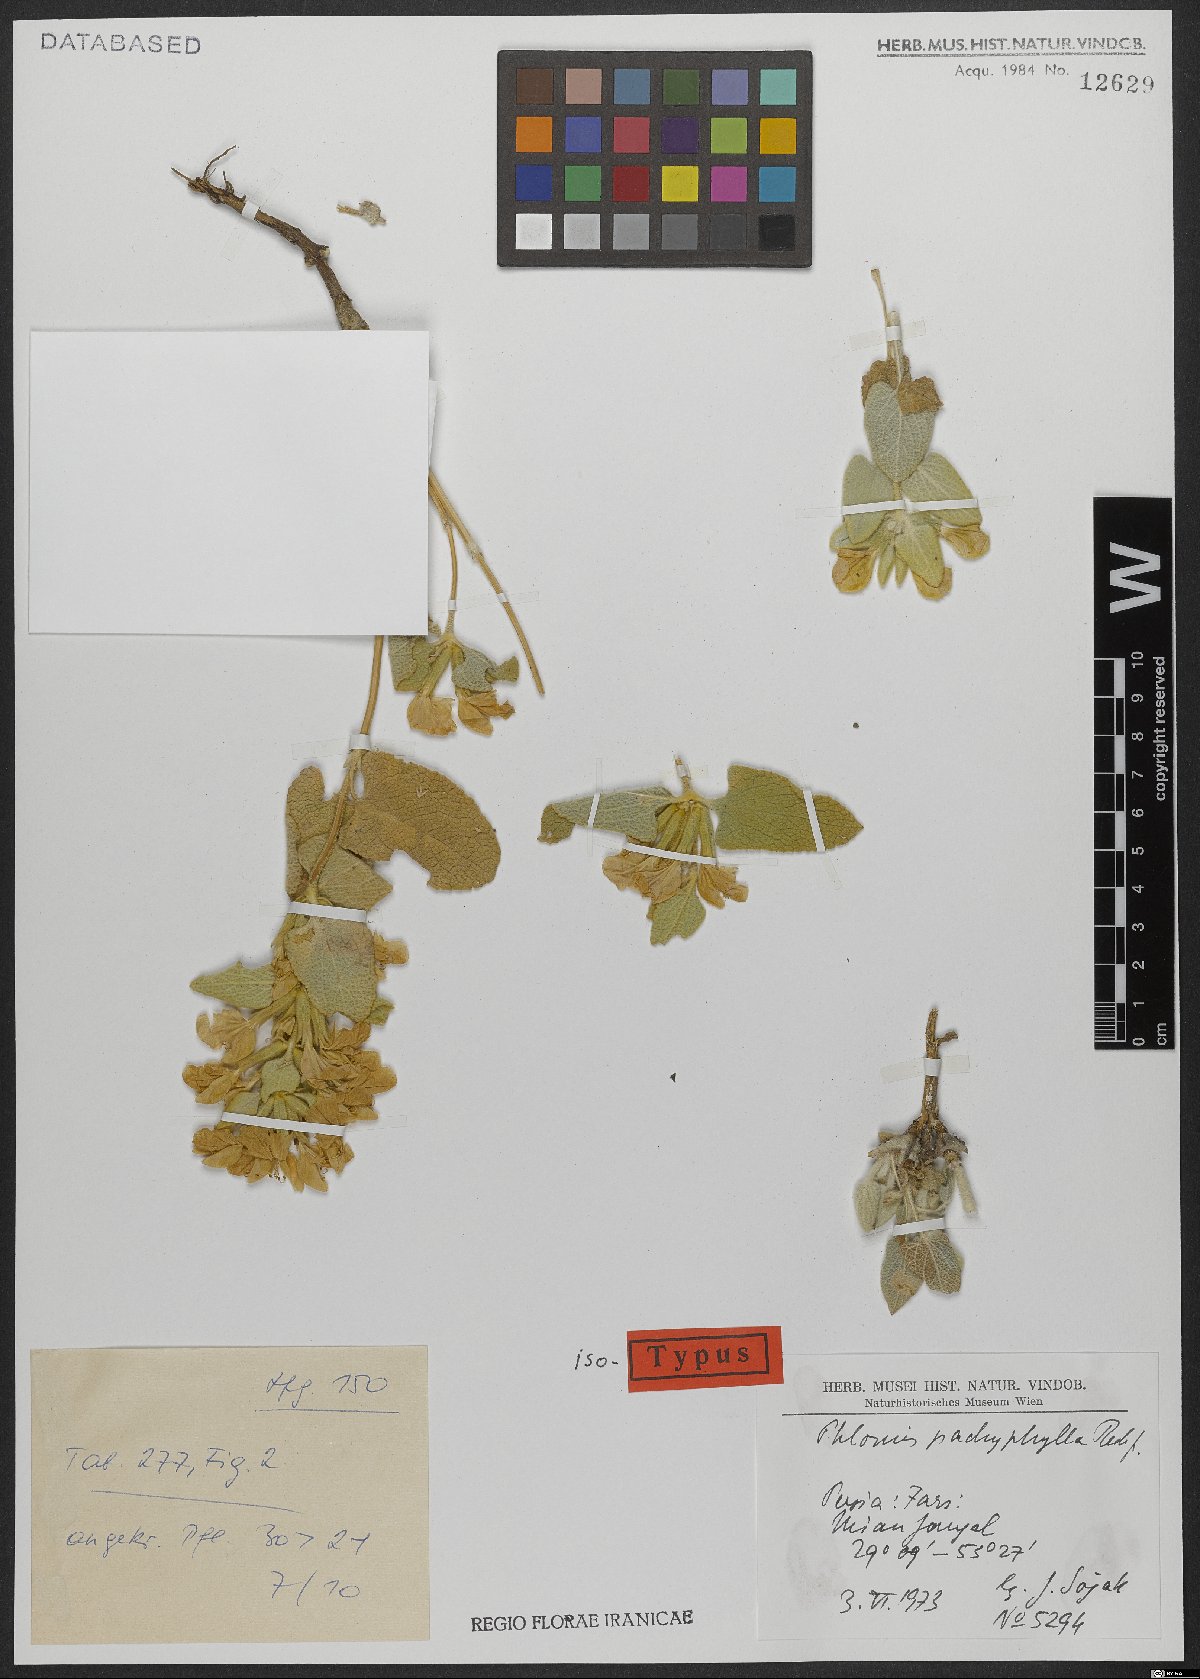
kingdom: Plantae
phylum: Tracheophyta
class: Magnoliopsida
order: Lamiales
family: Lamiaceae
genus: Phlomis
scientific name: Phlomis pachyphylla
